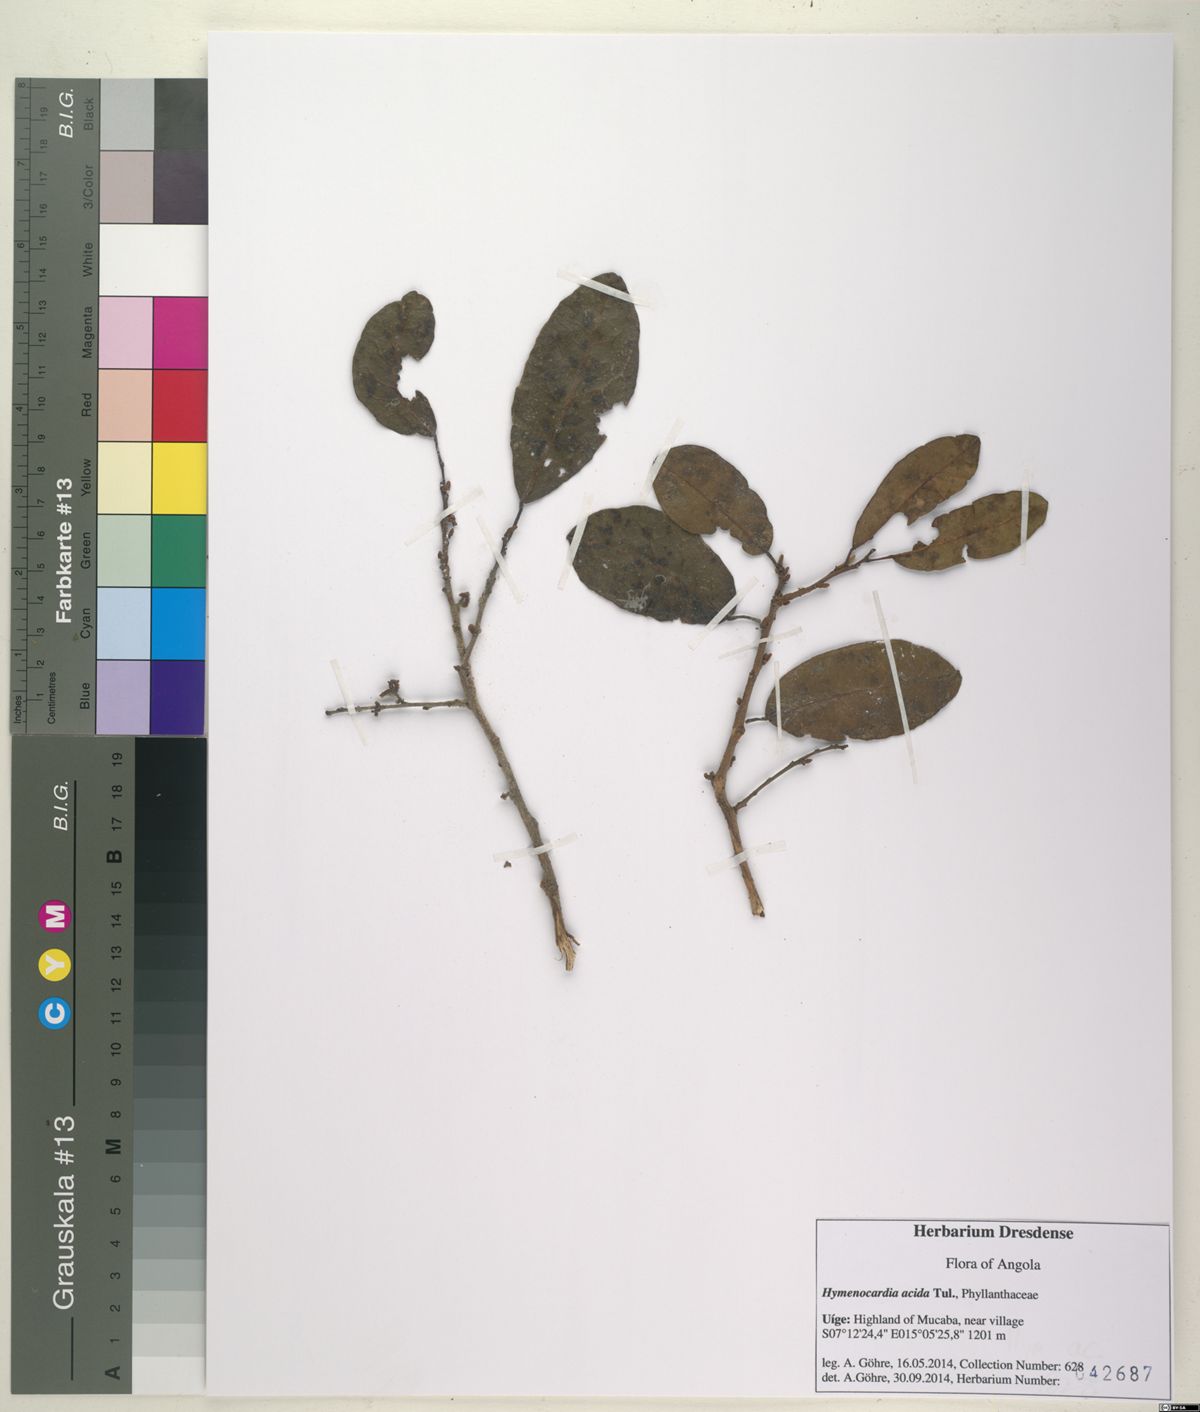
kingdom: Plantae
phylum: Tracheophyta
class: Magnoliopsida
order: Malpighiales
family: Phyllanthaceae
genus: Hymenocardia
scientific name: Hymenocardia acida
